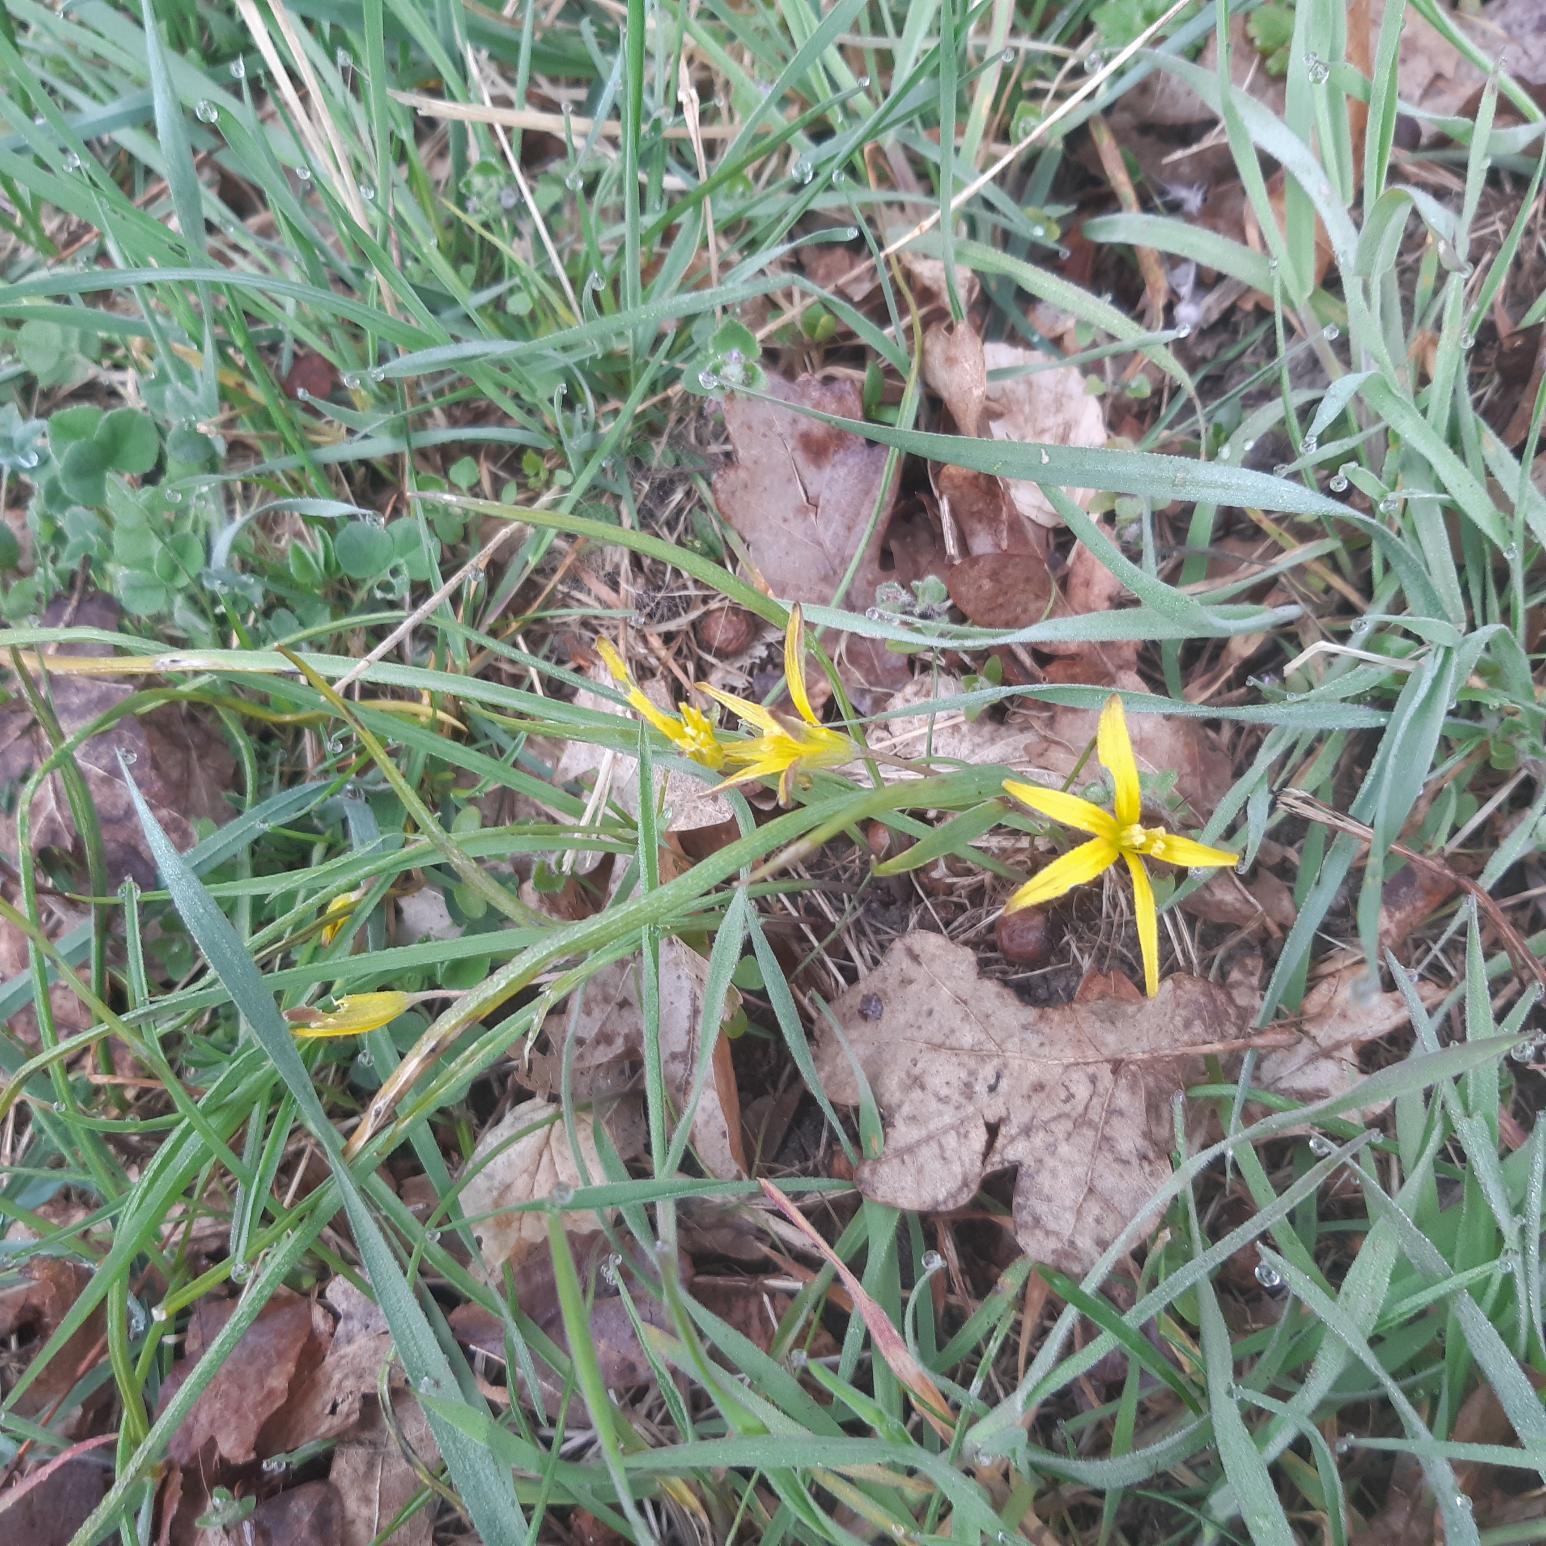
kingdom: Plantae
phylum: Tracheophyta
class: Liliopsida
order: Liliales
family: Liliaceae
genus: Gagea
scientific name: Gagea pratensis
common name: Eng-guldstjerne
